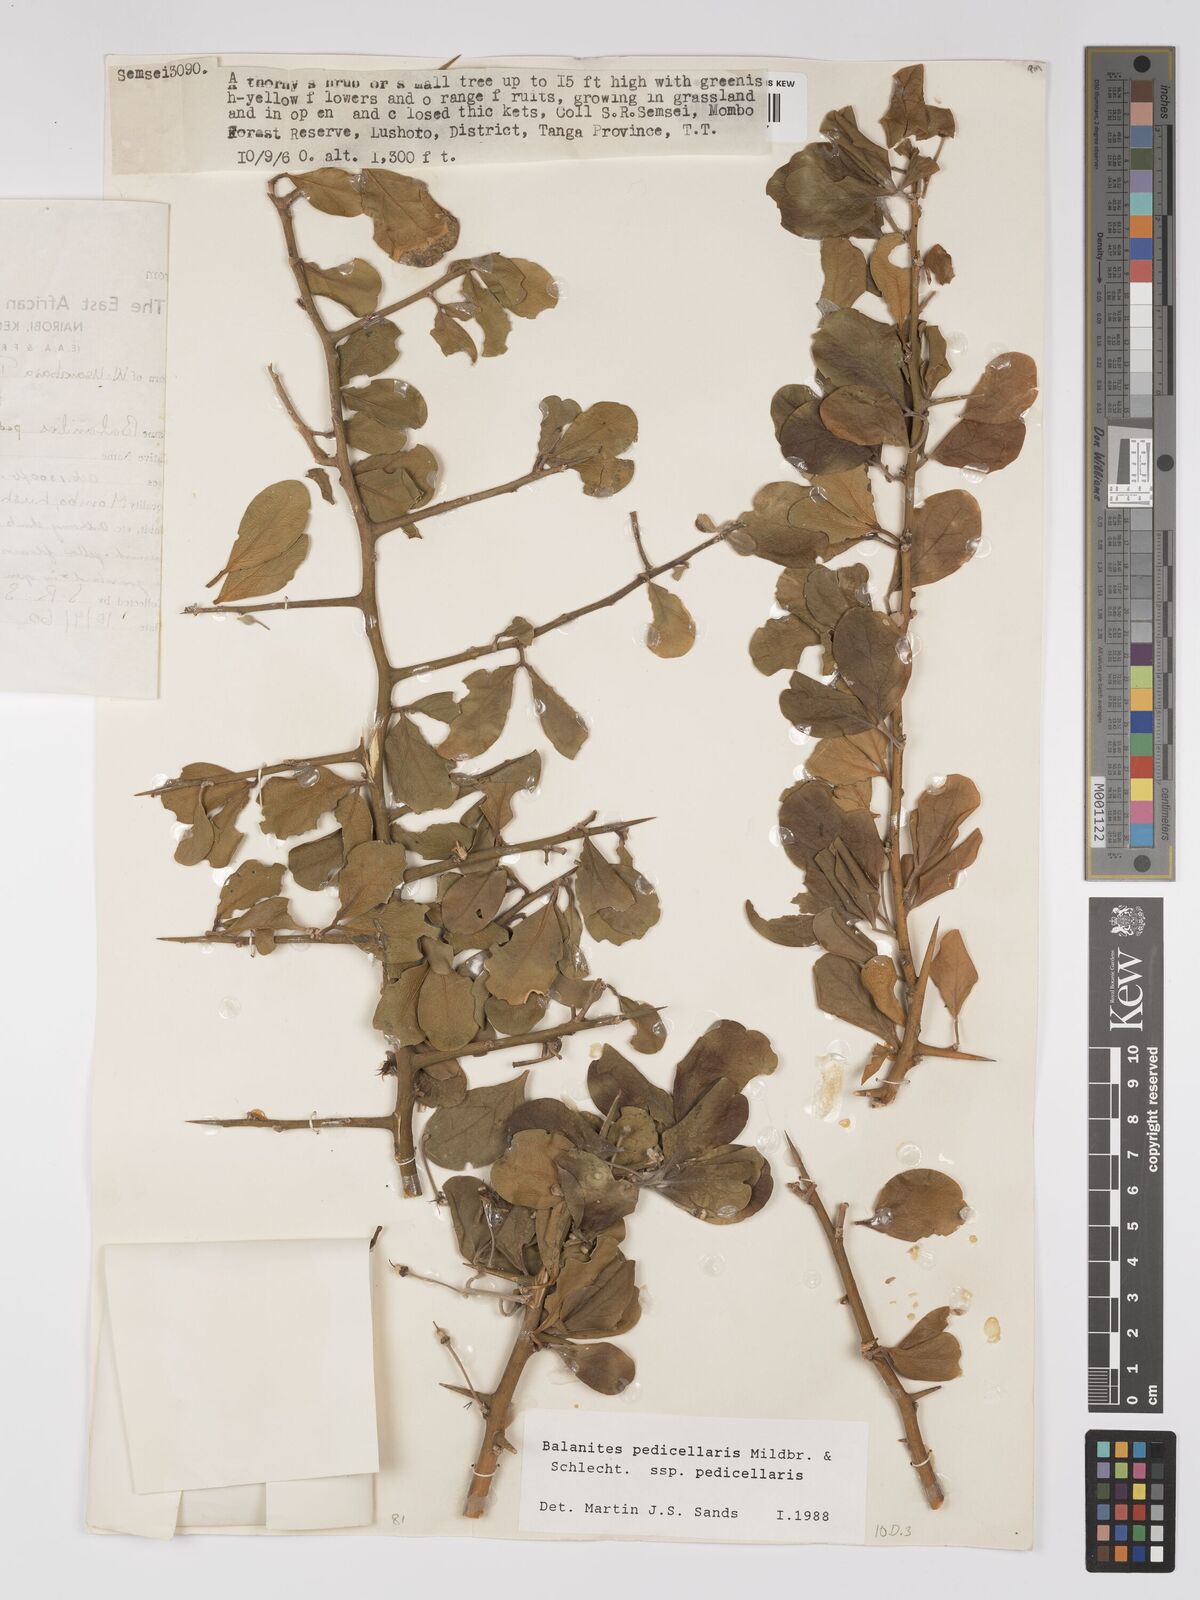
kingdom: Plantae
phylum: Tracheophyta
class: Magnoliopsida
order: Zygophyllales
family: Zygophyllaceae
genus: Balanites
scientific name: Balanites pedicellaris
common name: Small green-thorn
